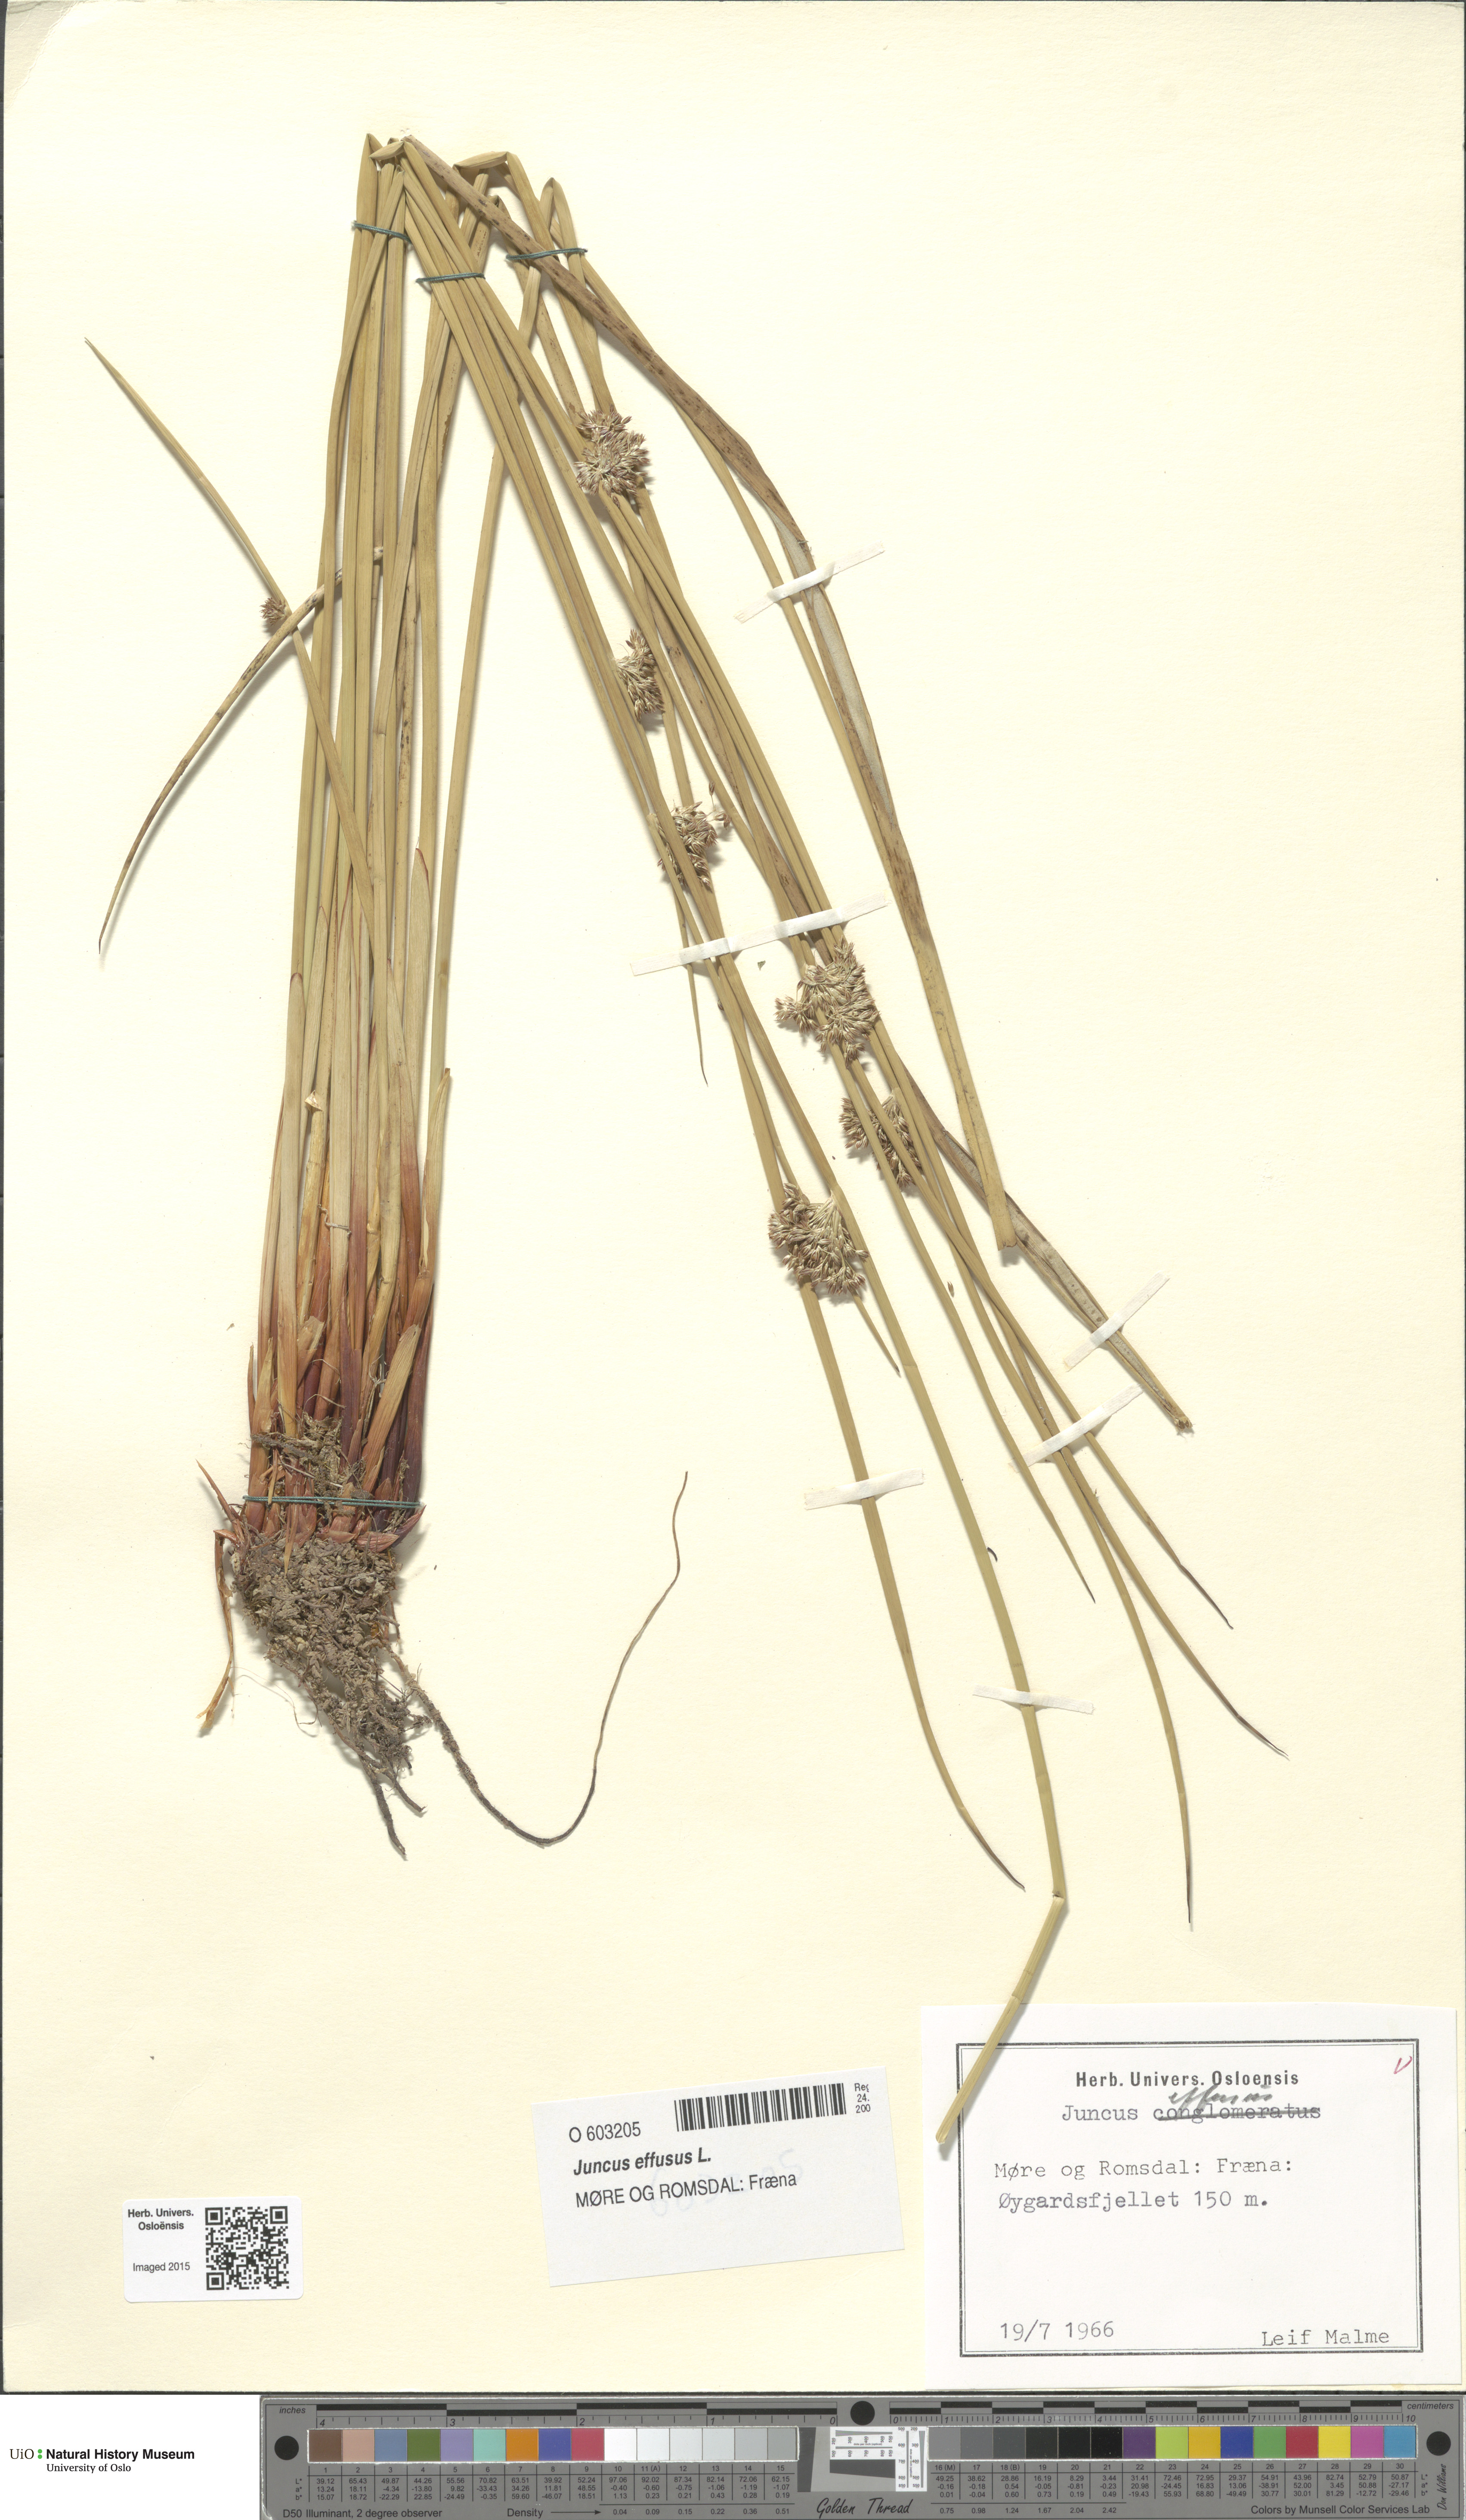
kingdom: Plantae
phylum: Tracheophyta
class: Liliopsida
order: Poales
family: Juncaceae
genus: Juncus
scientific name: Juncus effusus
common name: Soft rush
